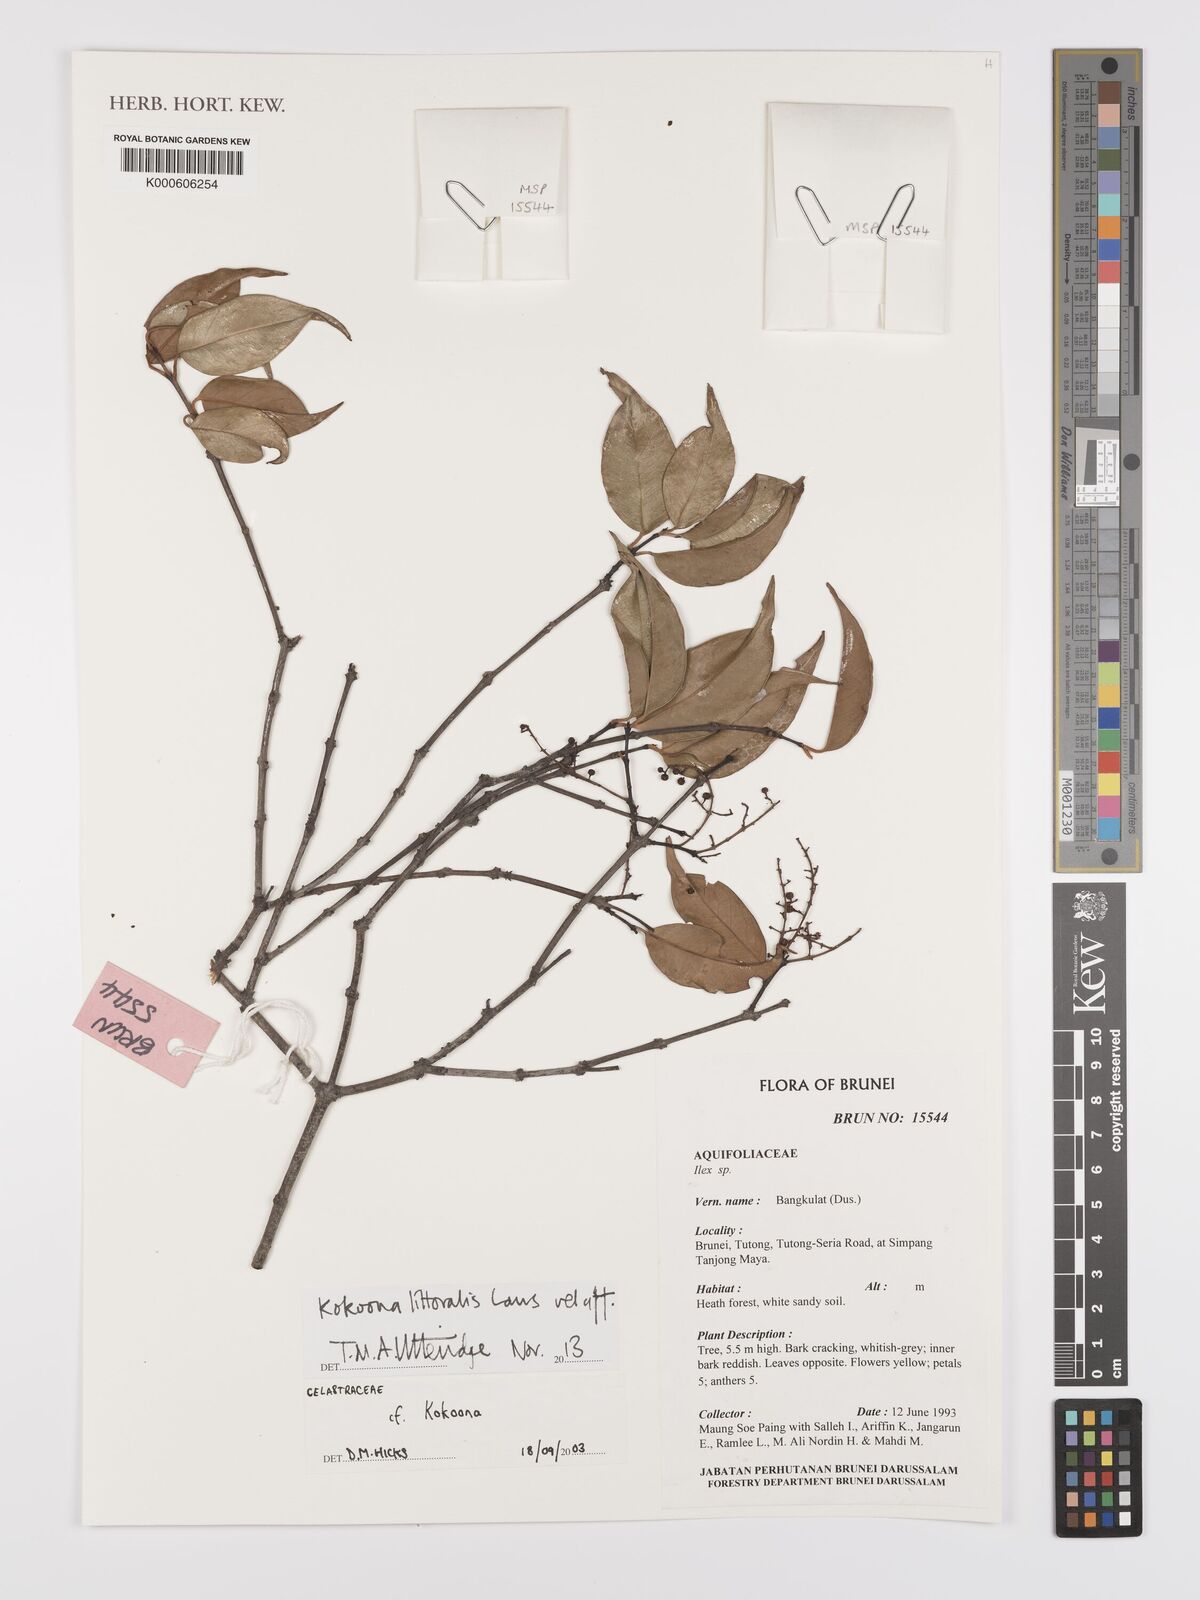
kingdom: Plantae
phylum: Tracheophyta
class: Magnoliopsida
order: Celastrales
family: Celastraceae
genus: Kokoona
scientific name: Kokoona littoralis
